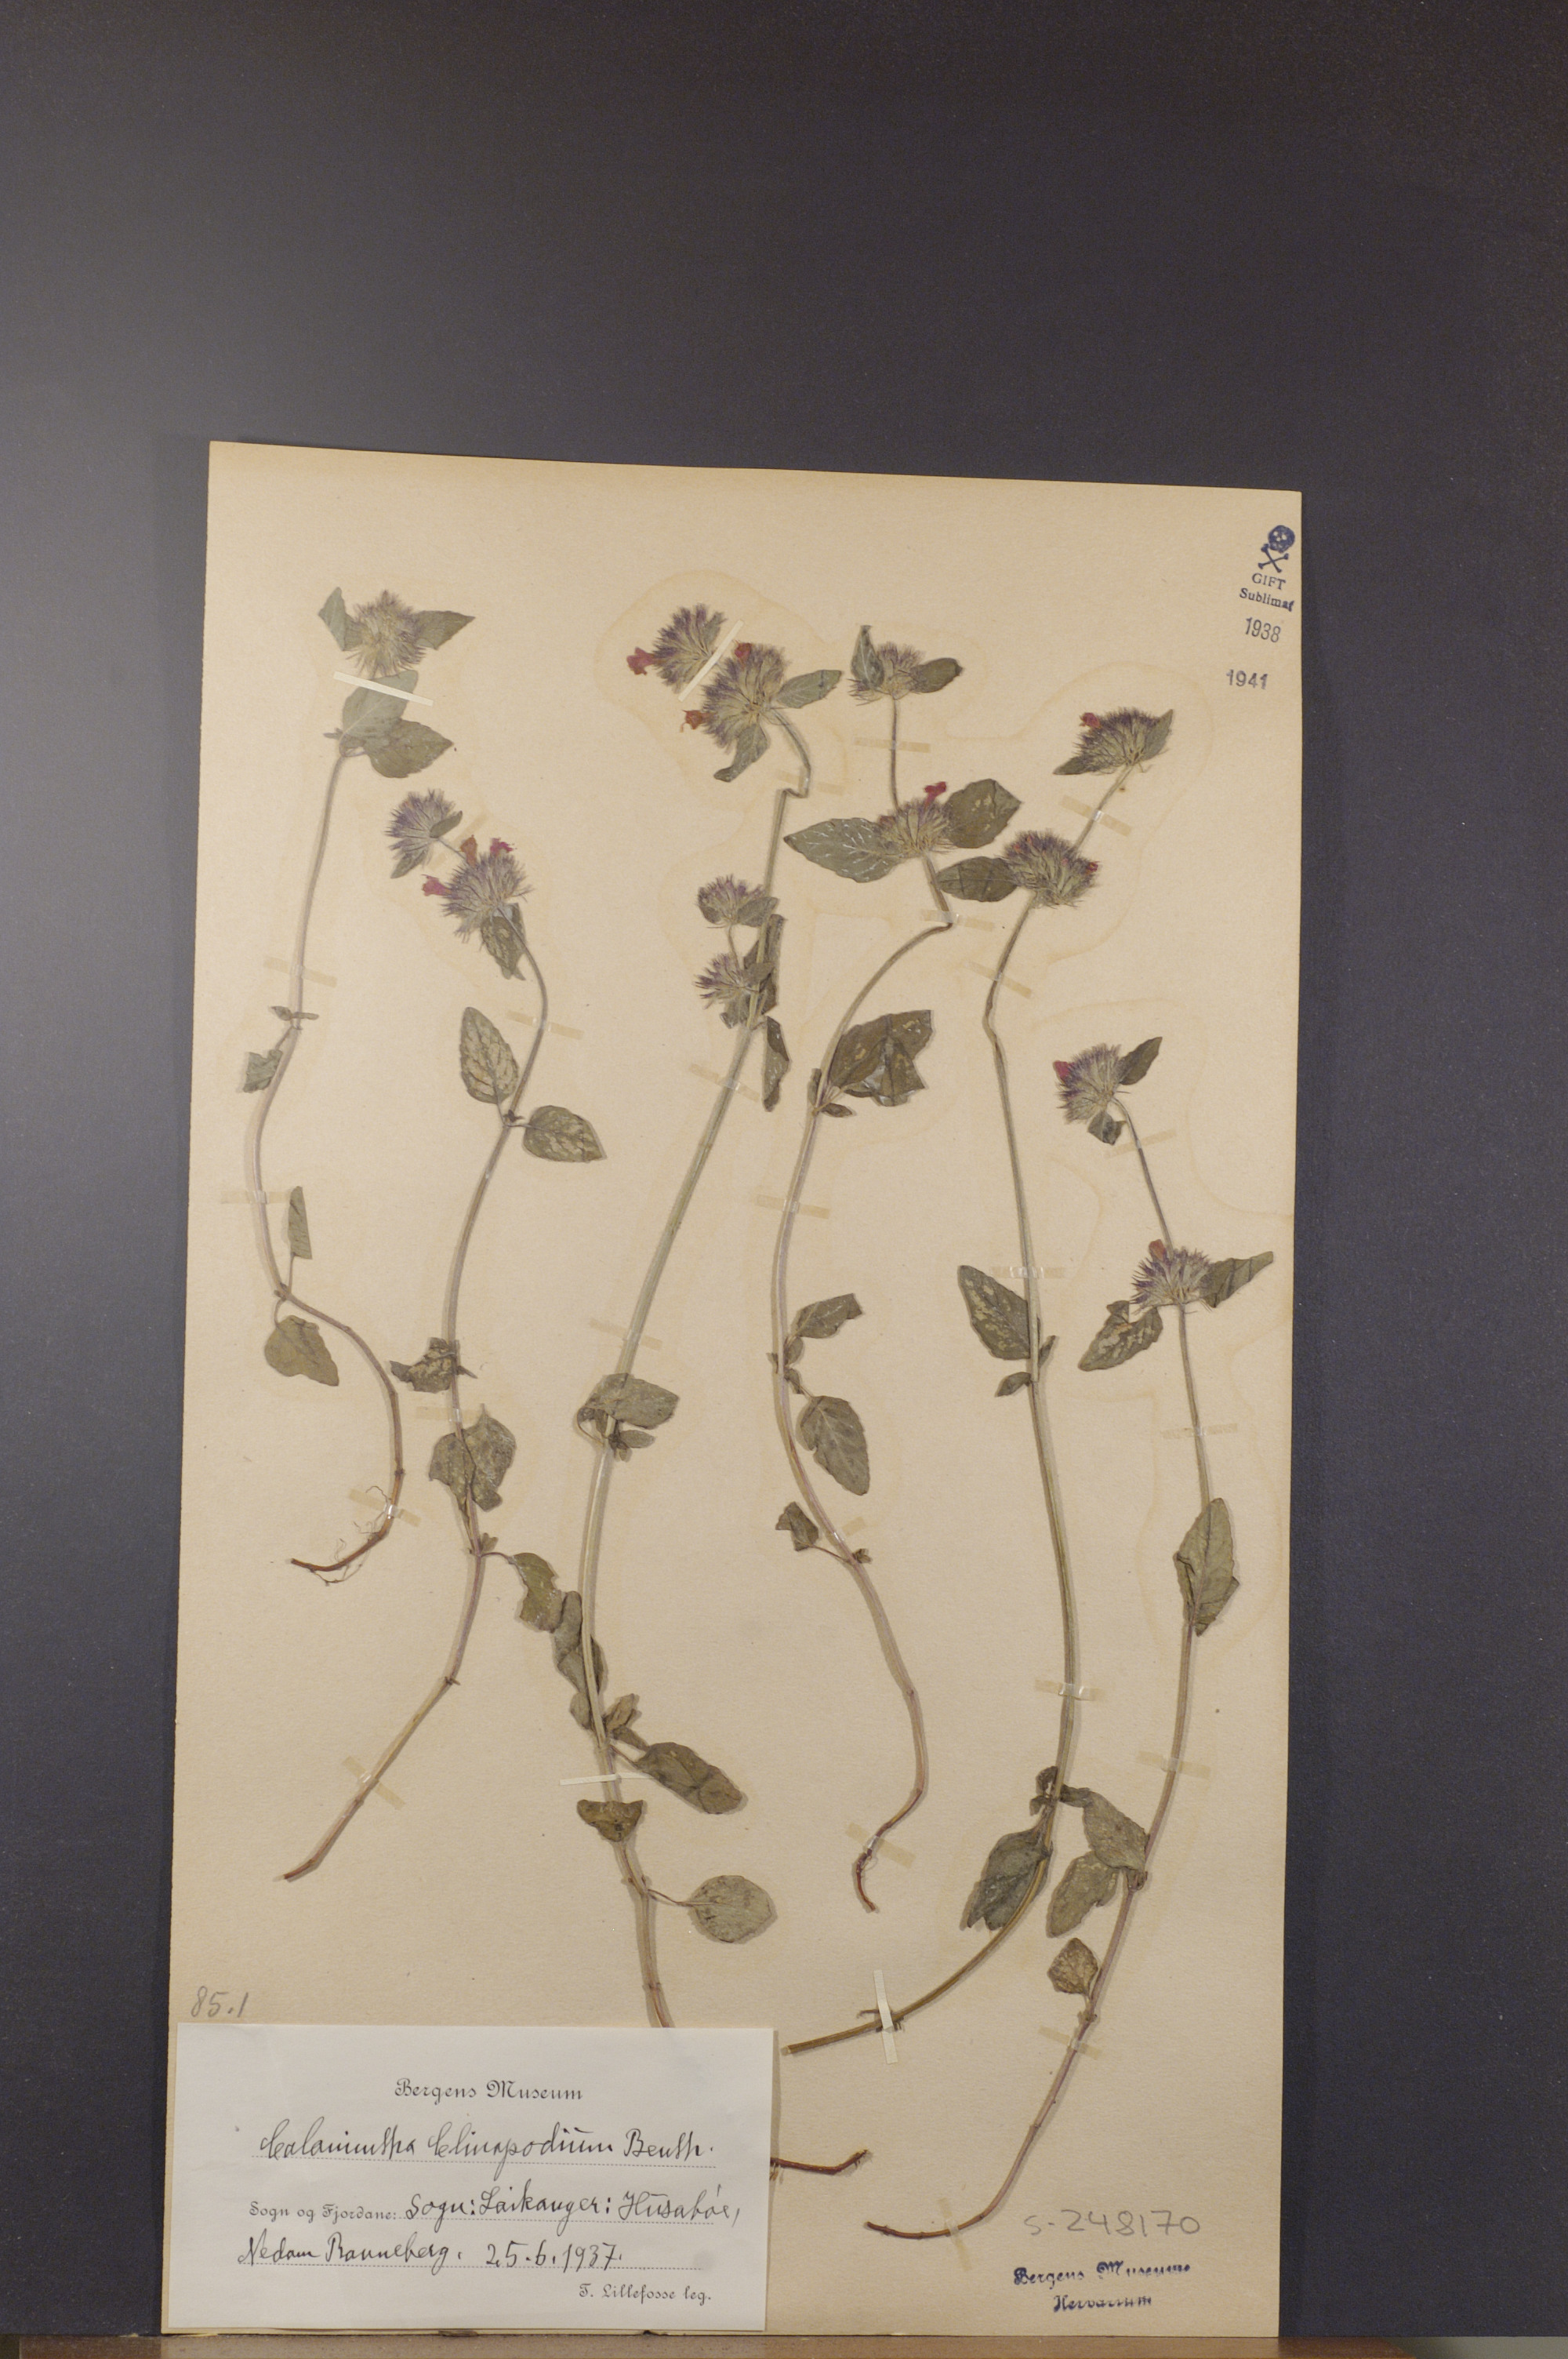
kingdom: Plantae
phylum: Tracheophyta
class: Magnoliopsida
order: Lamiales
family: Lamiaceae
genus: Clinopodium
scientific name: Clinopodium vulgare
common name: Wild basil
